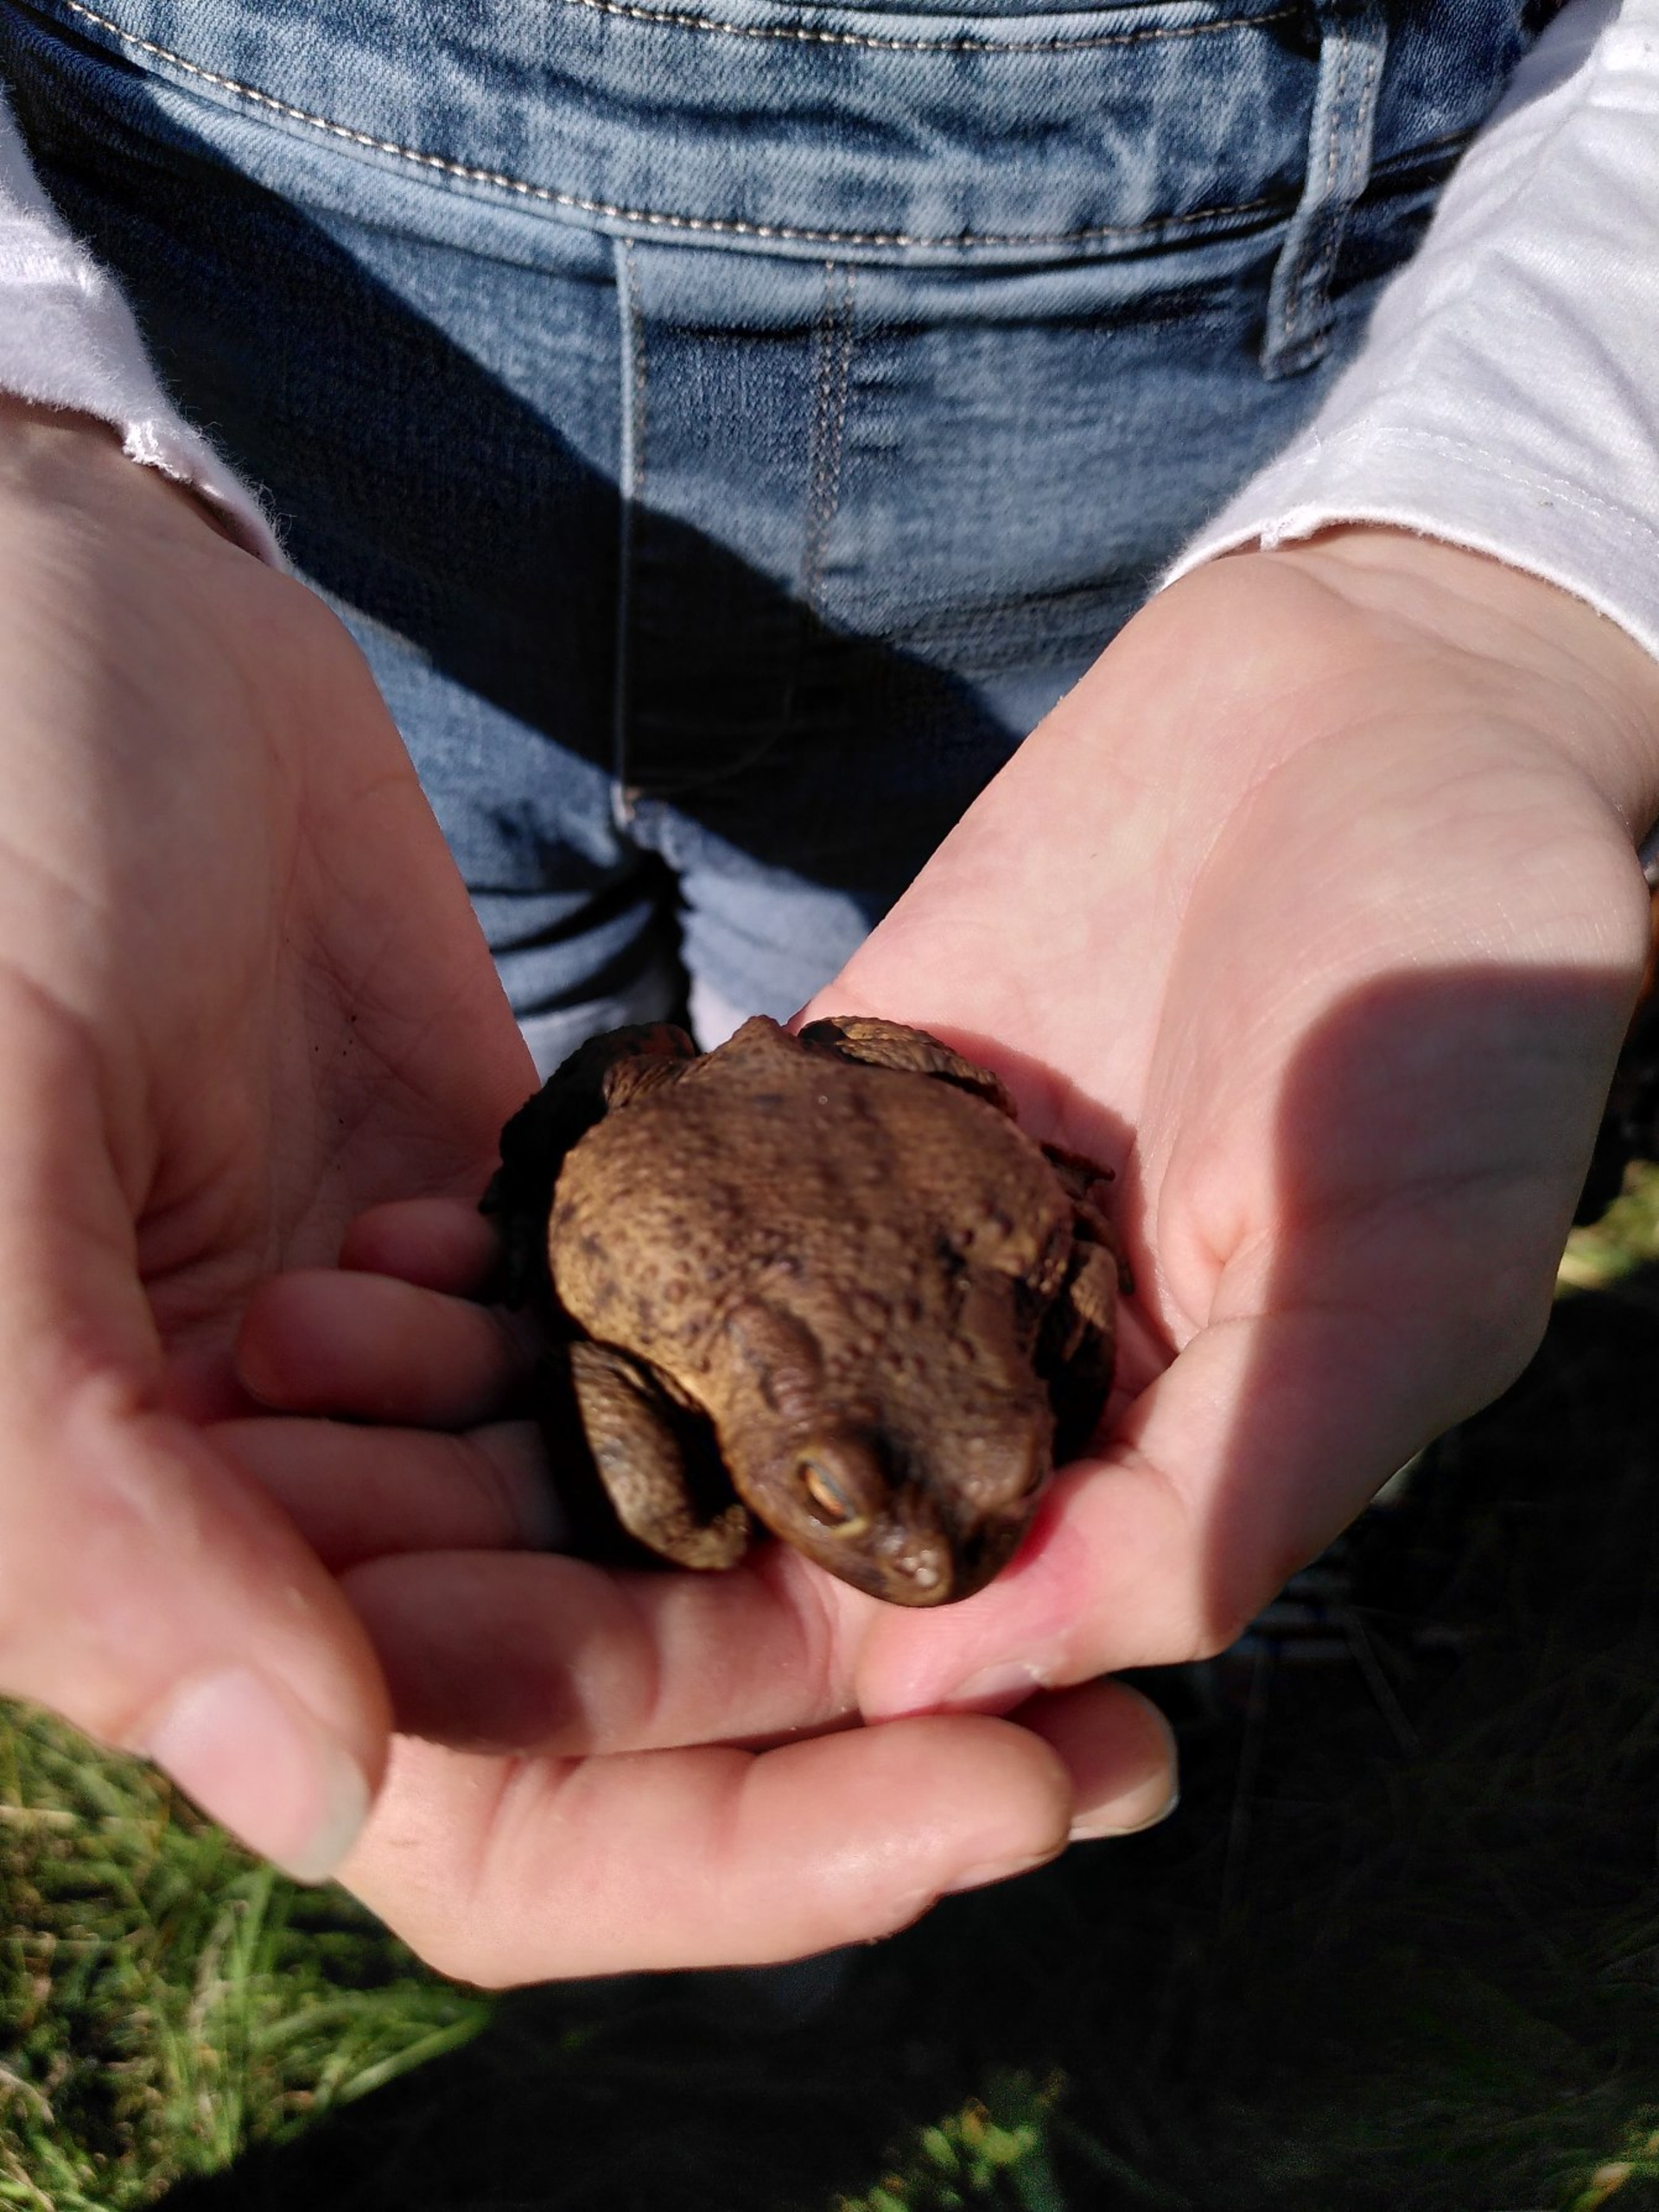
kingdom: Animalia
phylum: Chordata
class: Amphibia
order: Anura
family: Bufonidae
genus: Bufo
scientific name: Bufo bufo
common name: Skrubtudse
